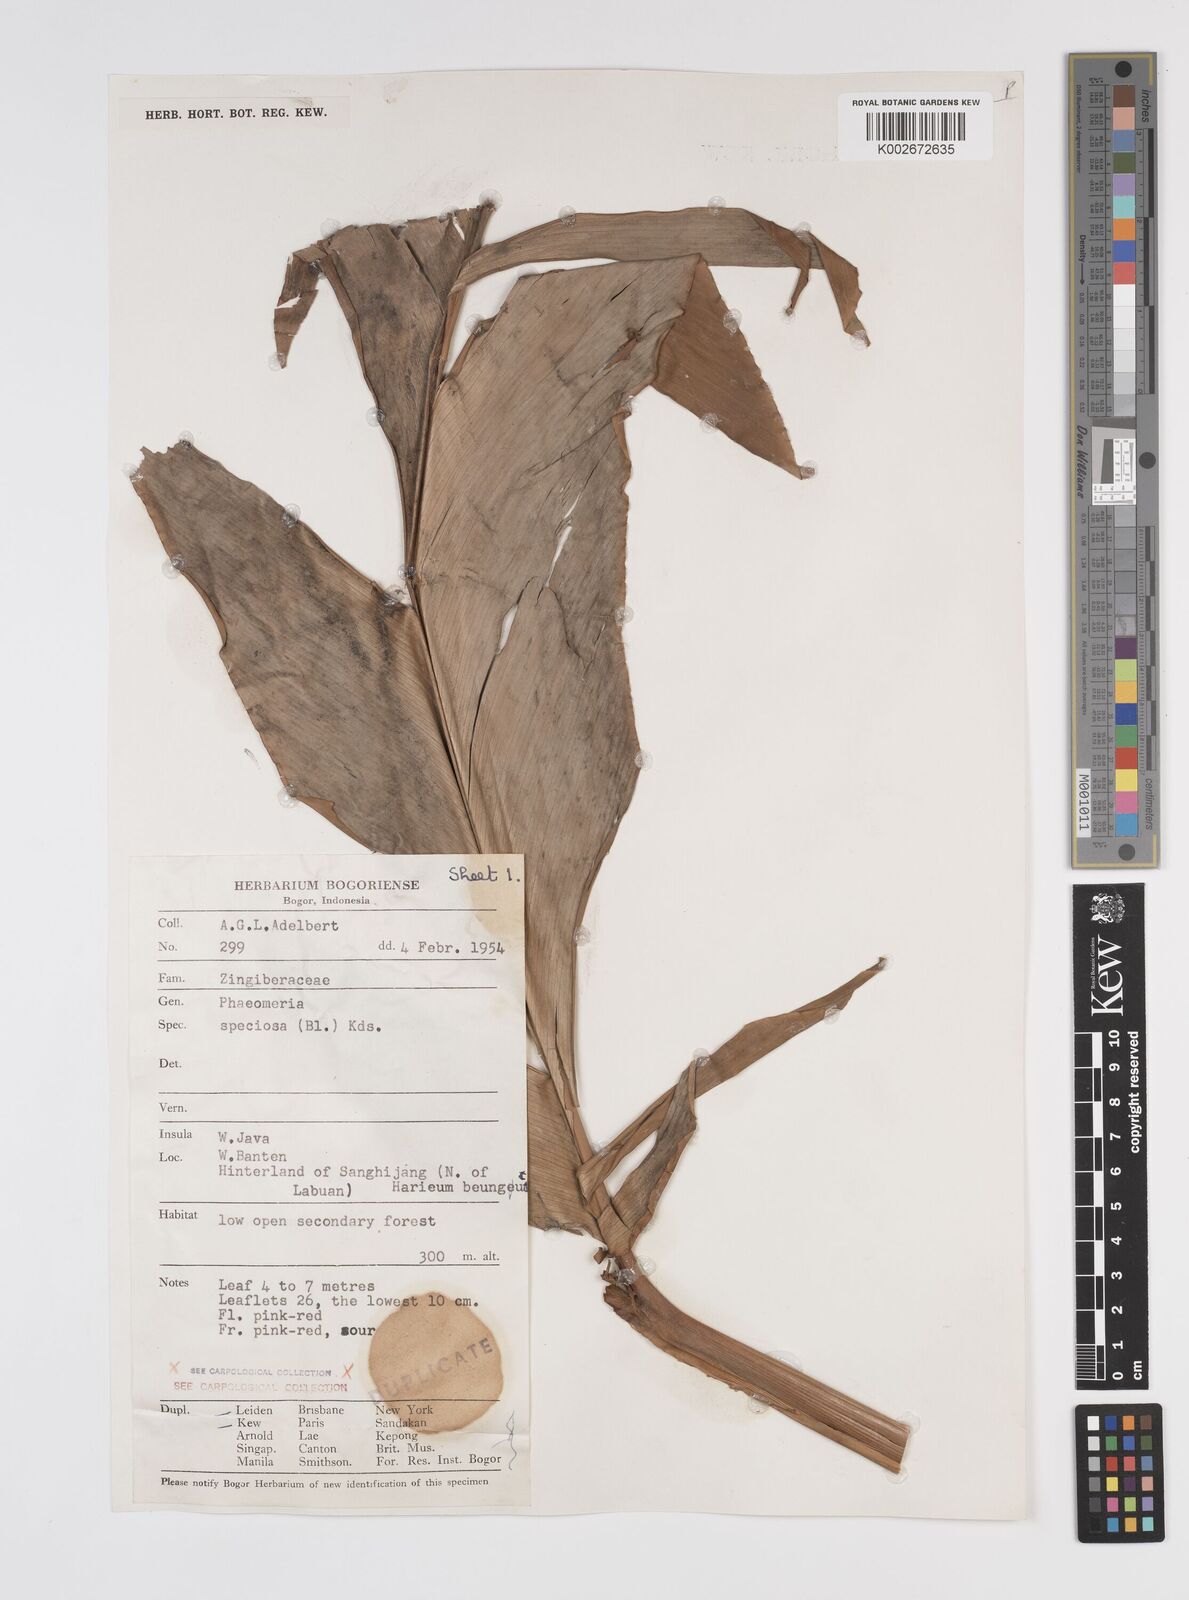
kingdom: Plantae
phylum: Tracheophyta
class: Liliopsida
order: Zingiberales
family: Zingiberaceae
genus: Etlingera
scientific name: Etlingera elatior
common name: Philippine waxflower
